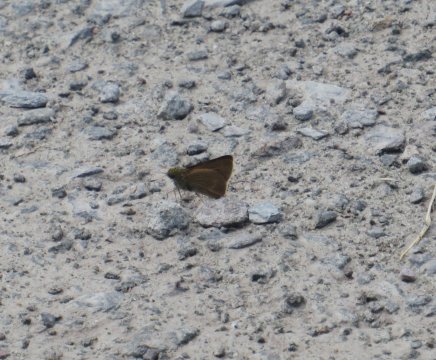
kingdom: Animalia
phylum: Arthropoda
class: Insecta
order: Lepidoptera
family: Hesperiidae
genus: Euphyes
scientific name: Euphyes vestris
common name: Dun Skipper
